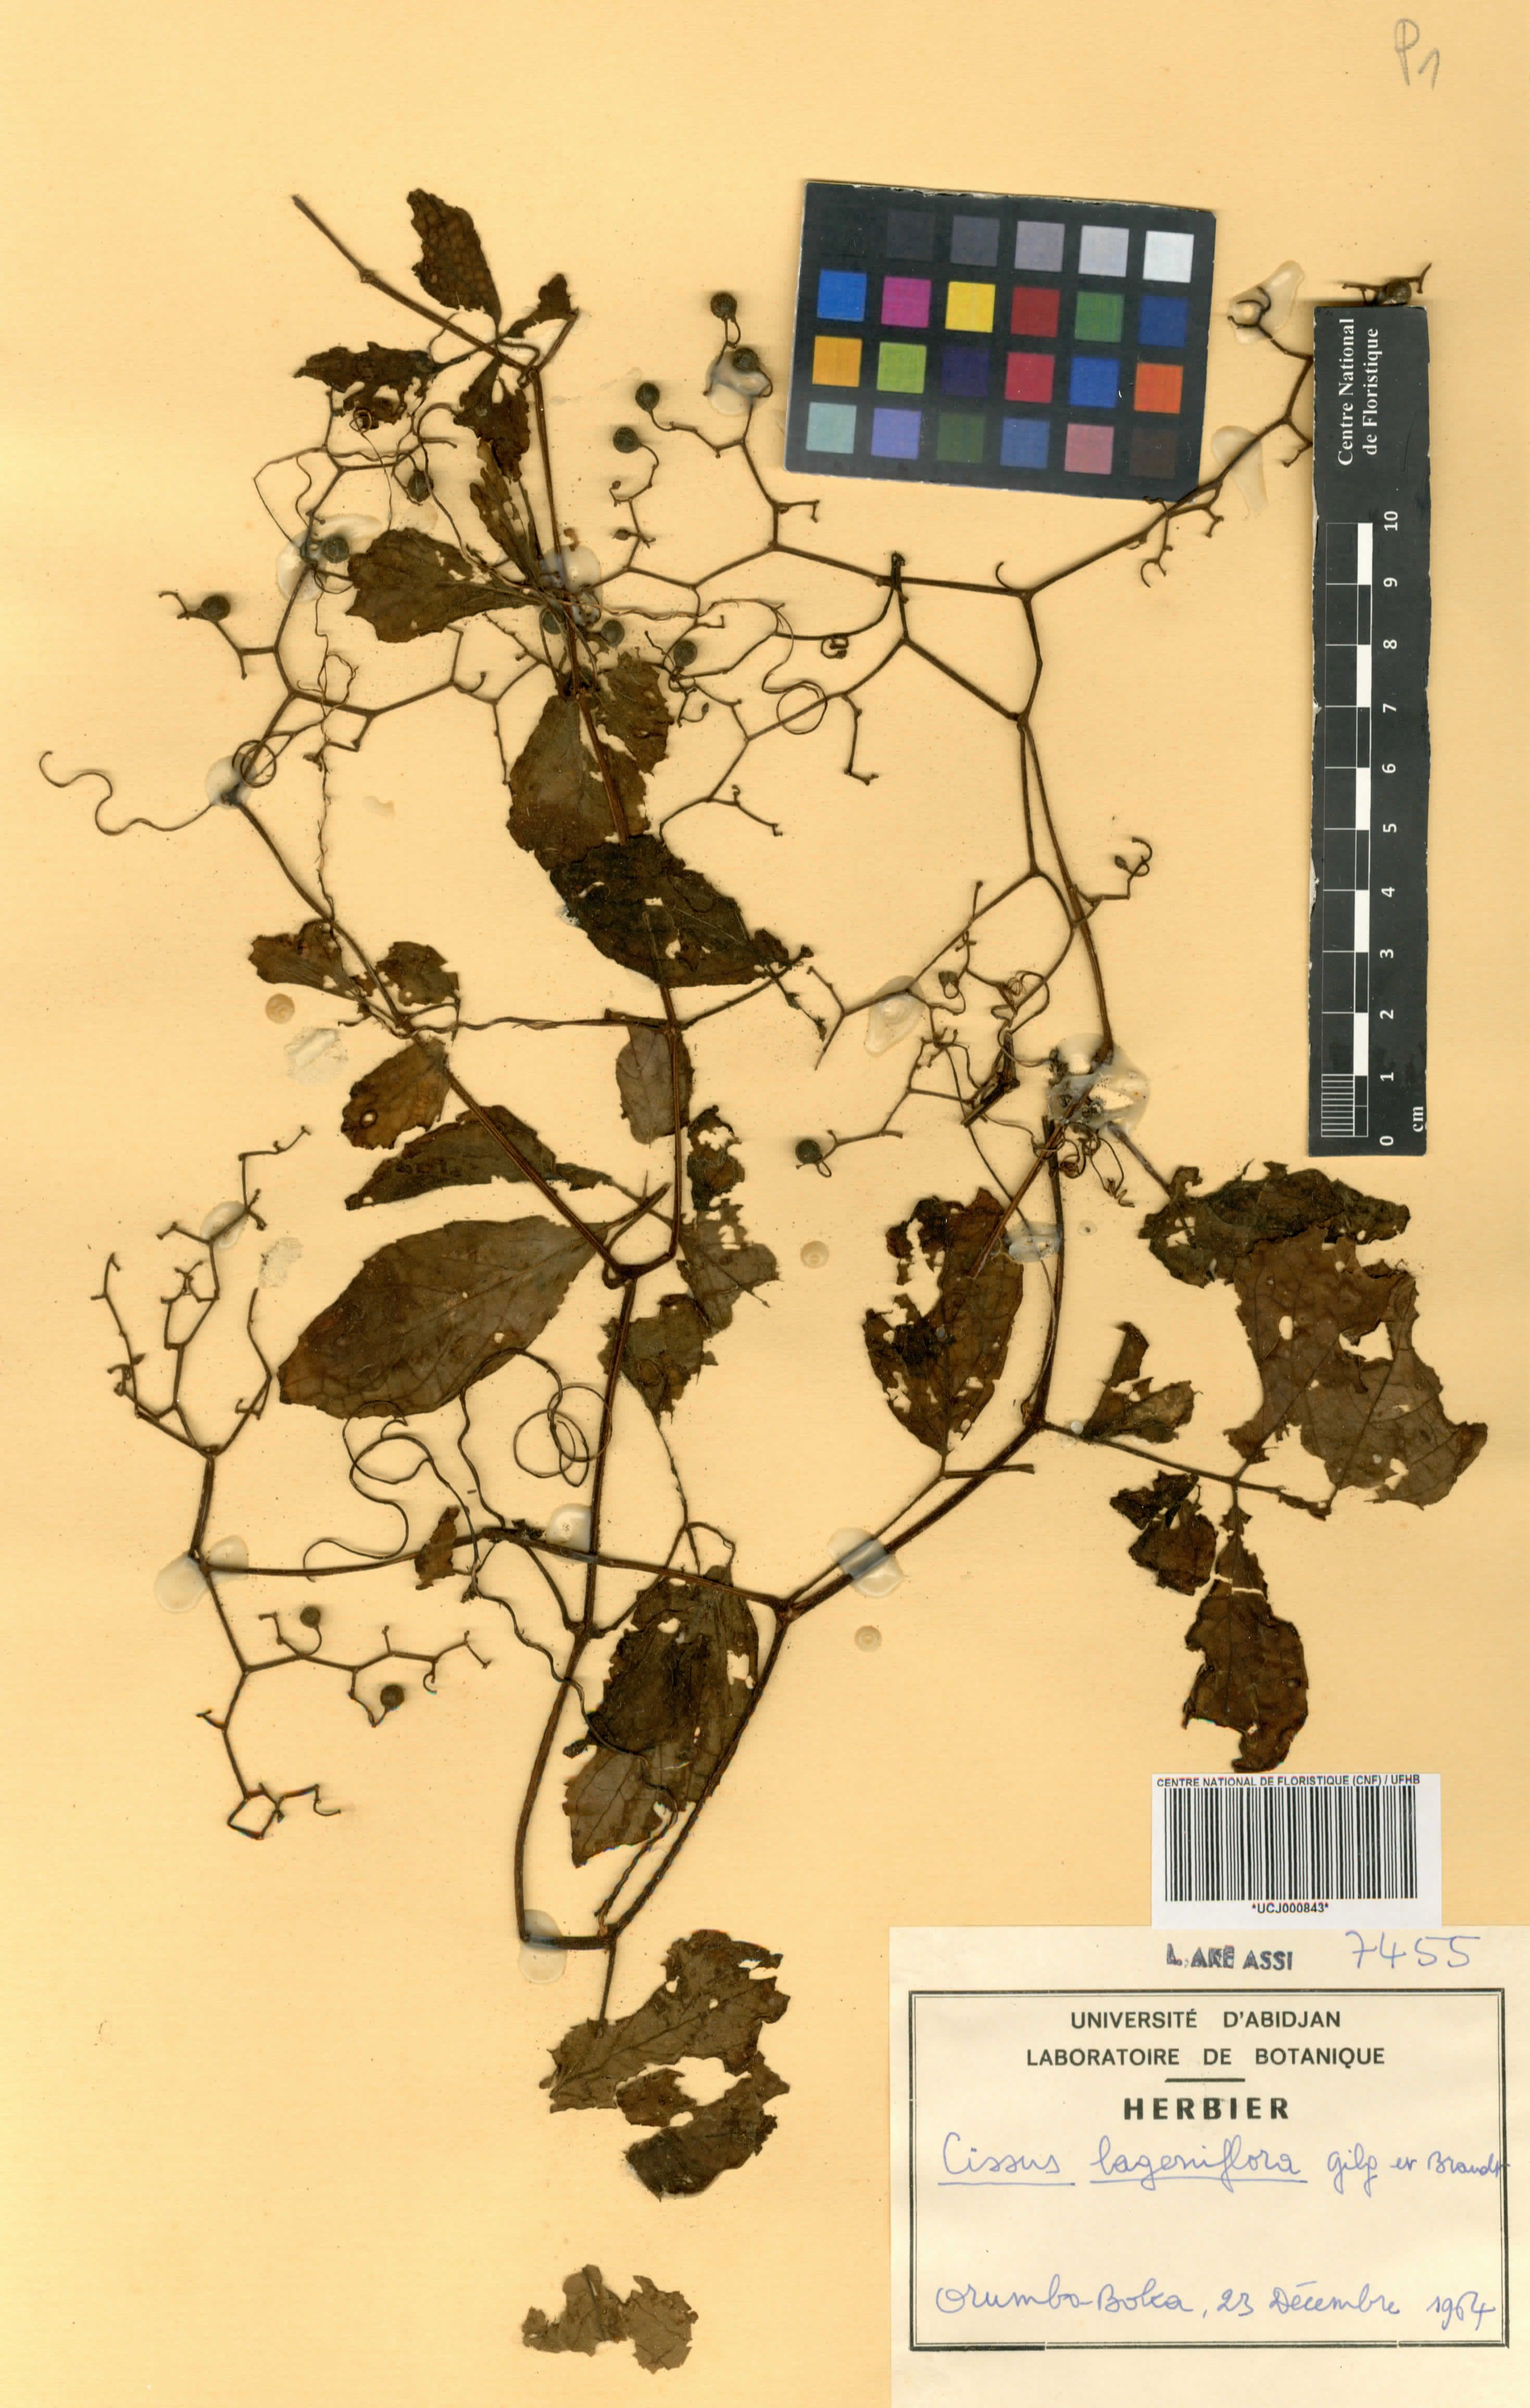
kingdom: Plantae
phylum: Tracheophyta
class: Magnoliopsida
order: Vitales
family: Vitaceae
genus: Cyphostemma
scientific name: Cyphostemma lageniflorum
